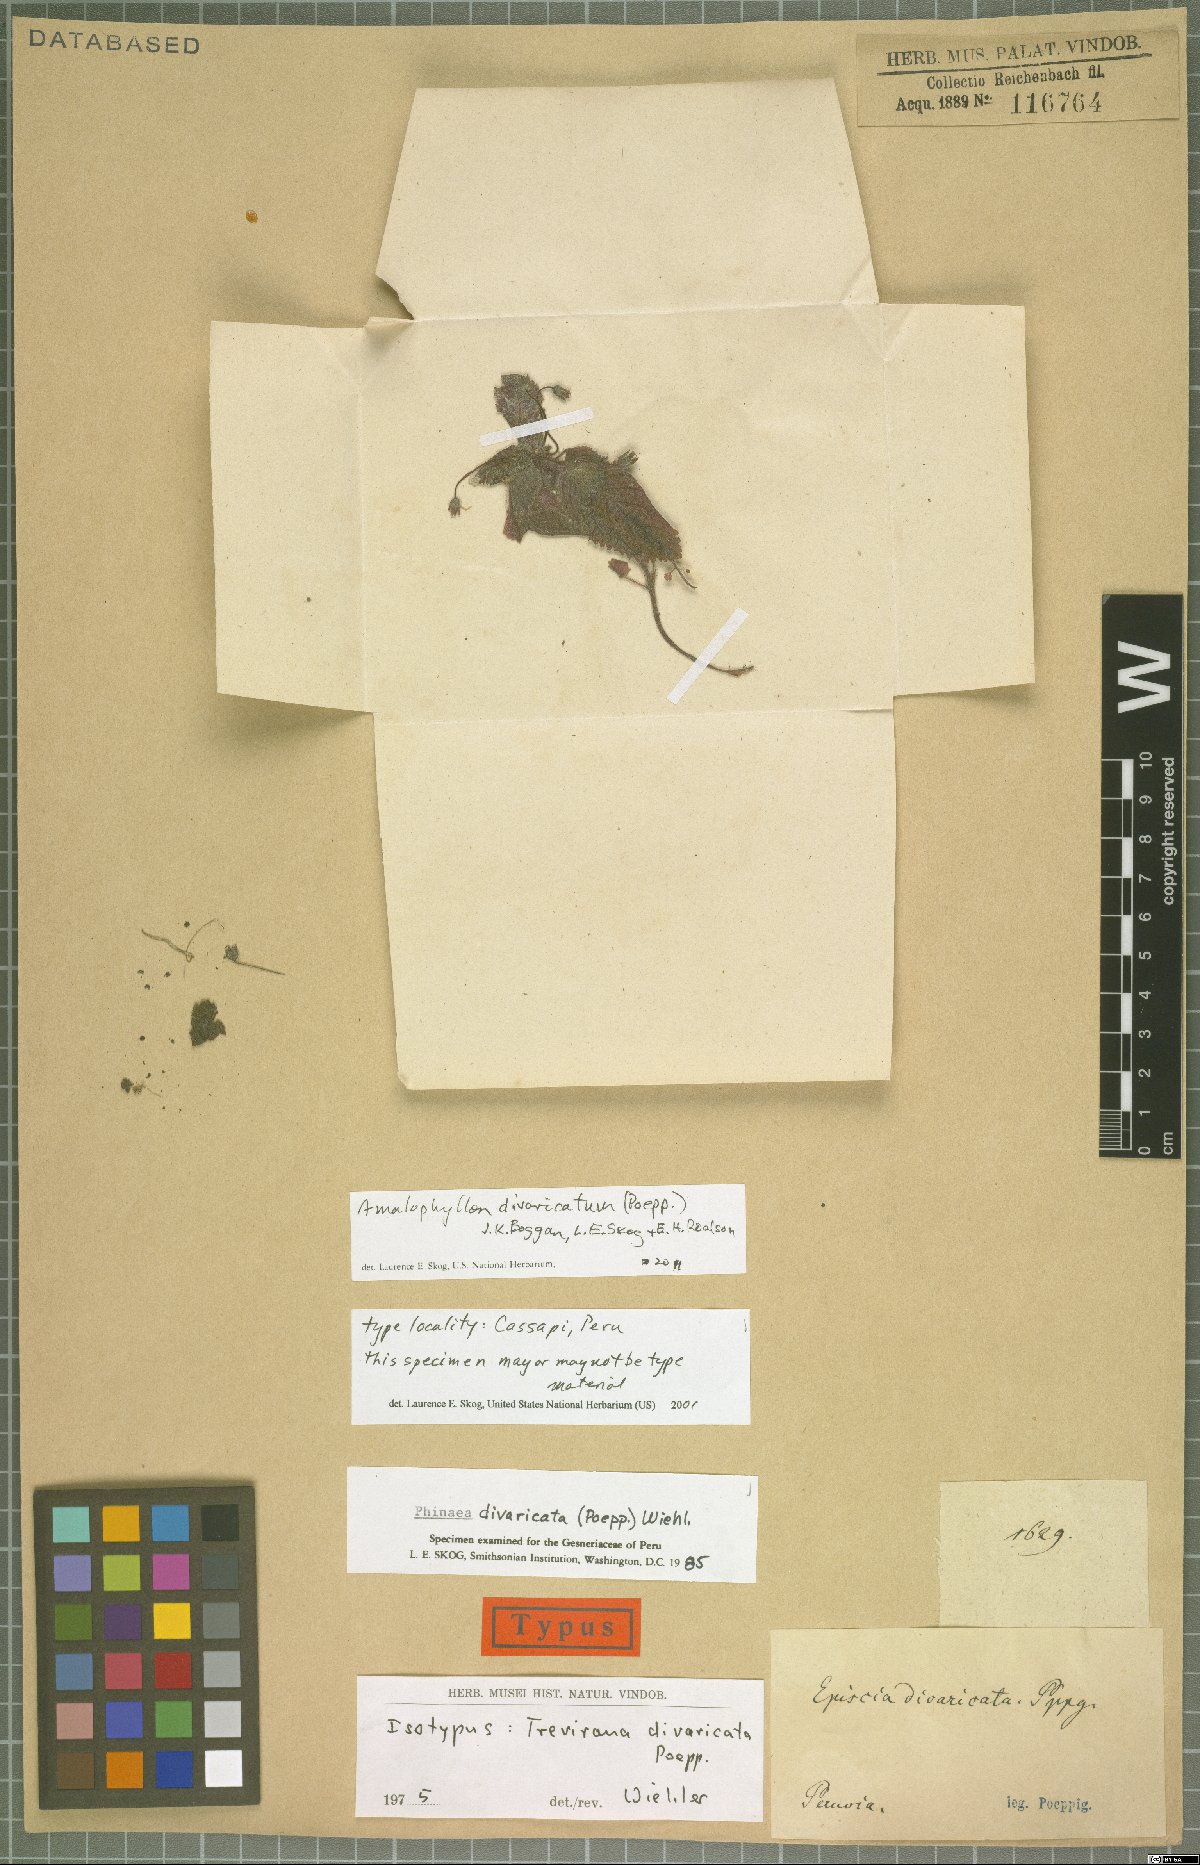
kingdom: Plantae
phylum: Tracheophyta
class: Magnoliopsida
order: Lamiales
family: Gesneriaceae
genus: Amalophyllon
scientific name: Amalophyllon divaricatum
